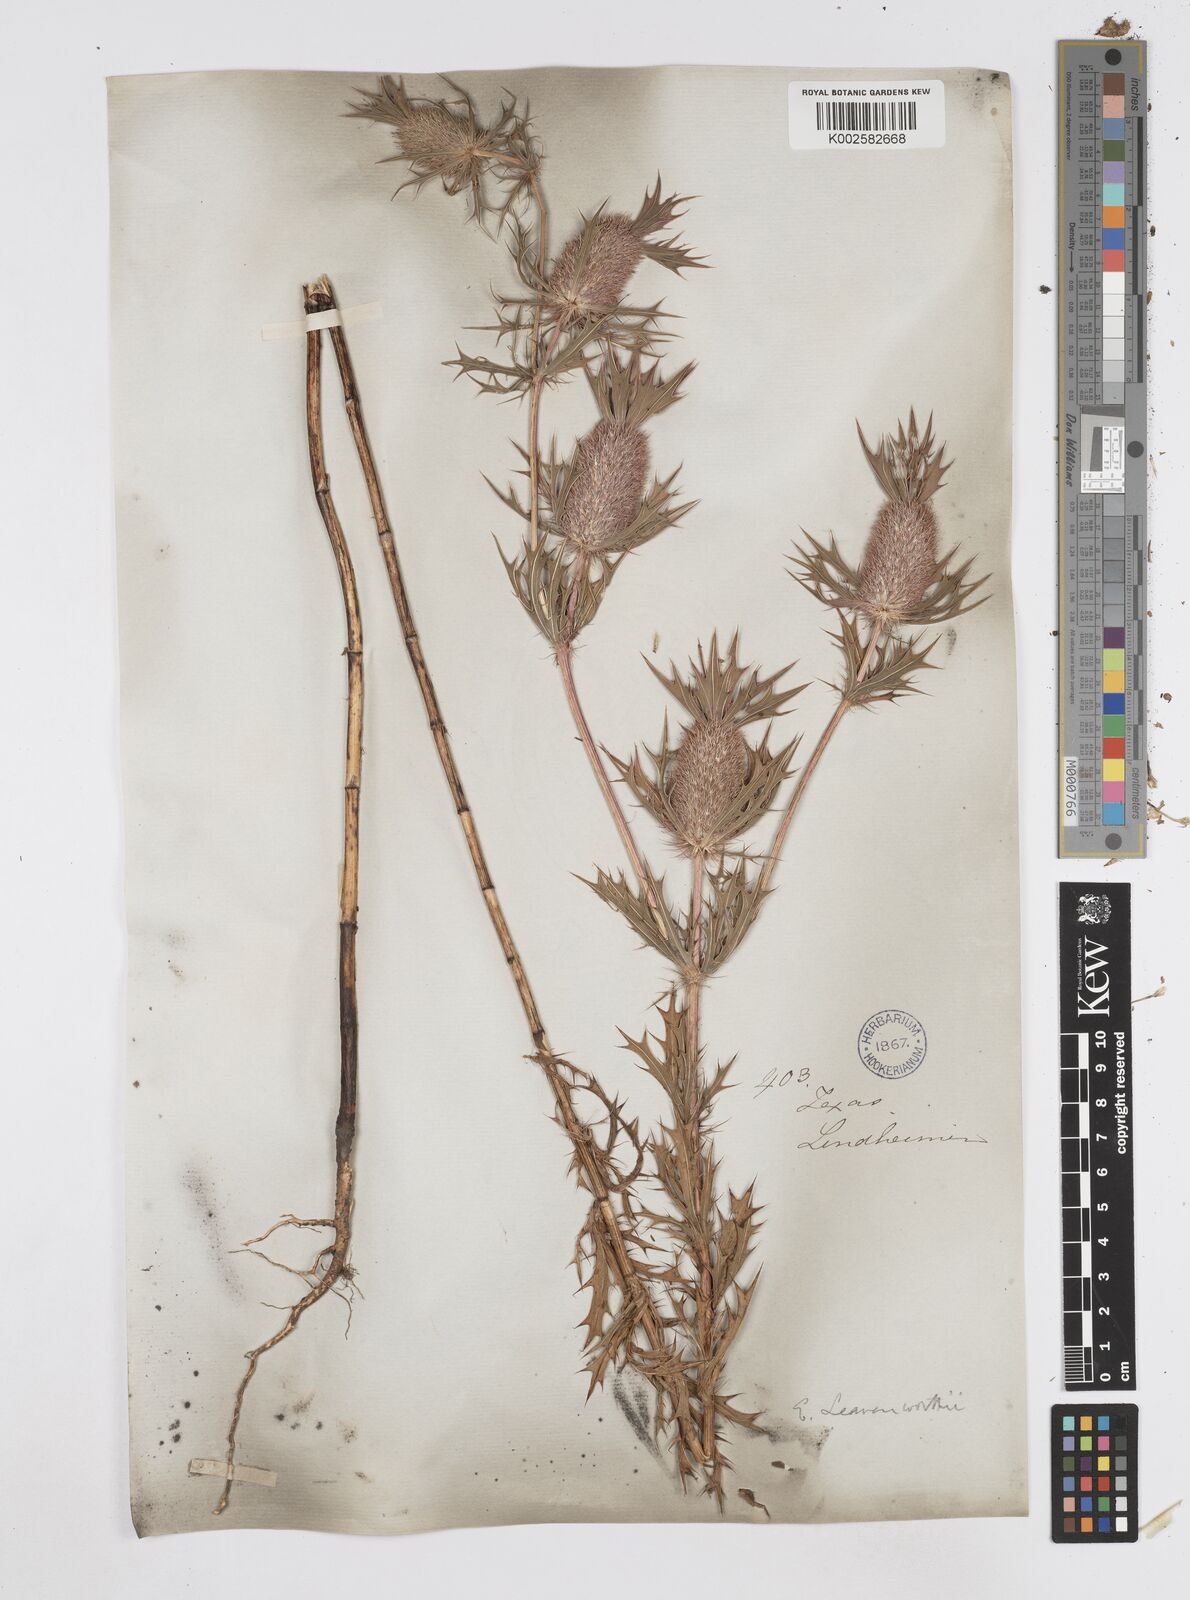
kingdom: Plantae
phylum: Tracheophyta
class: Magnoliopsida
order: Apiales
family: Apiaceae
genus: Eryngium
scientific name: Eryngium leavenworthii
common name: Leavenworth's eryngo
